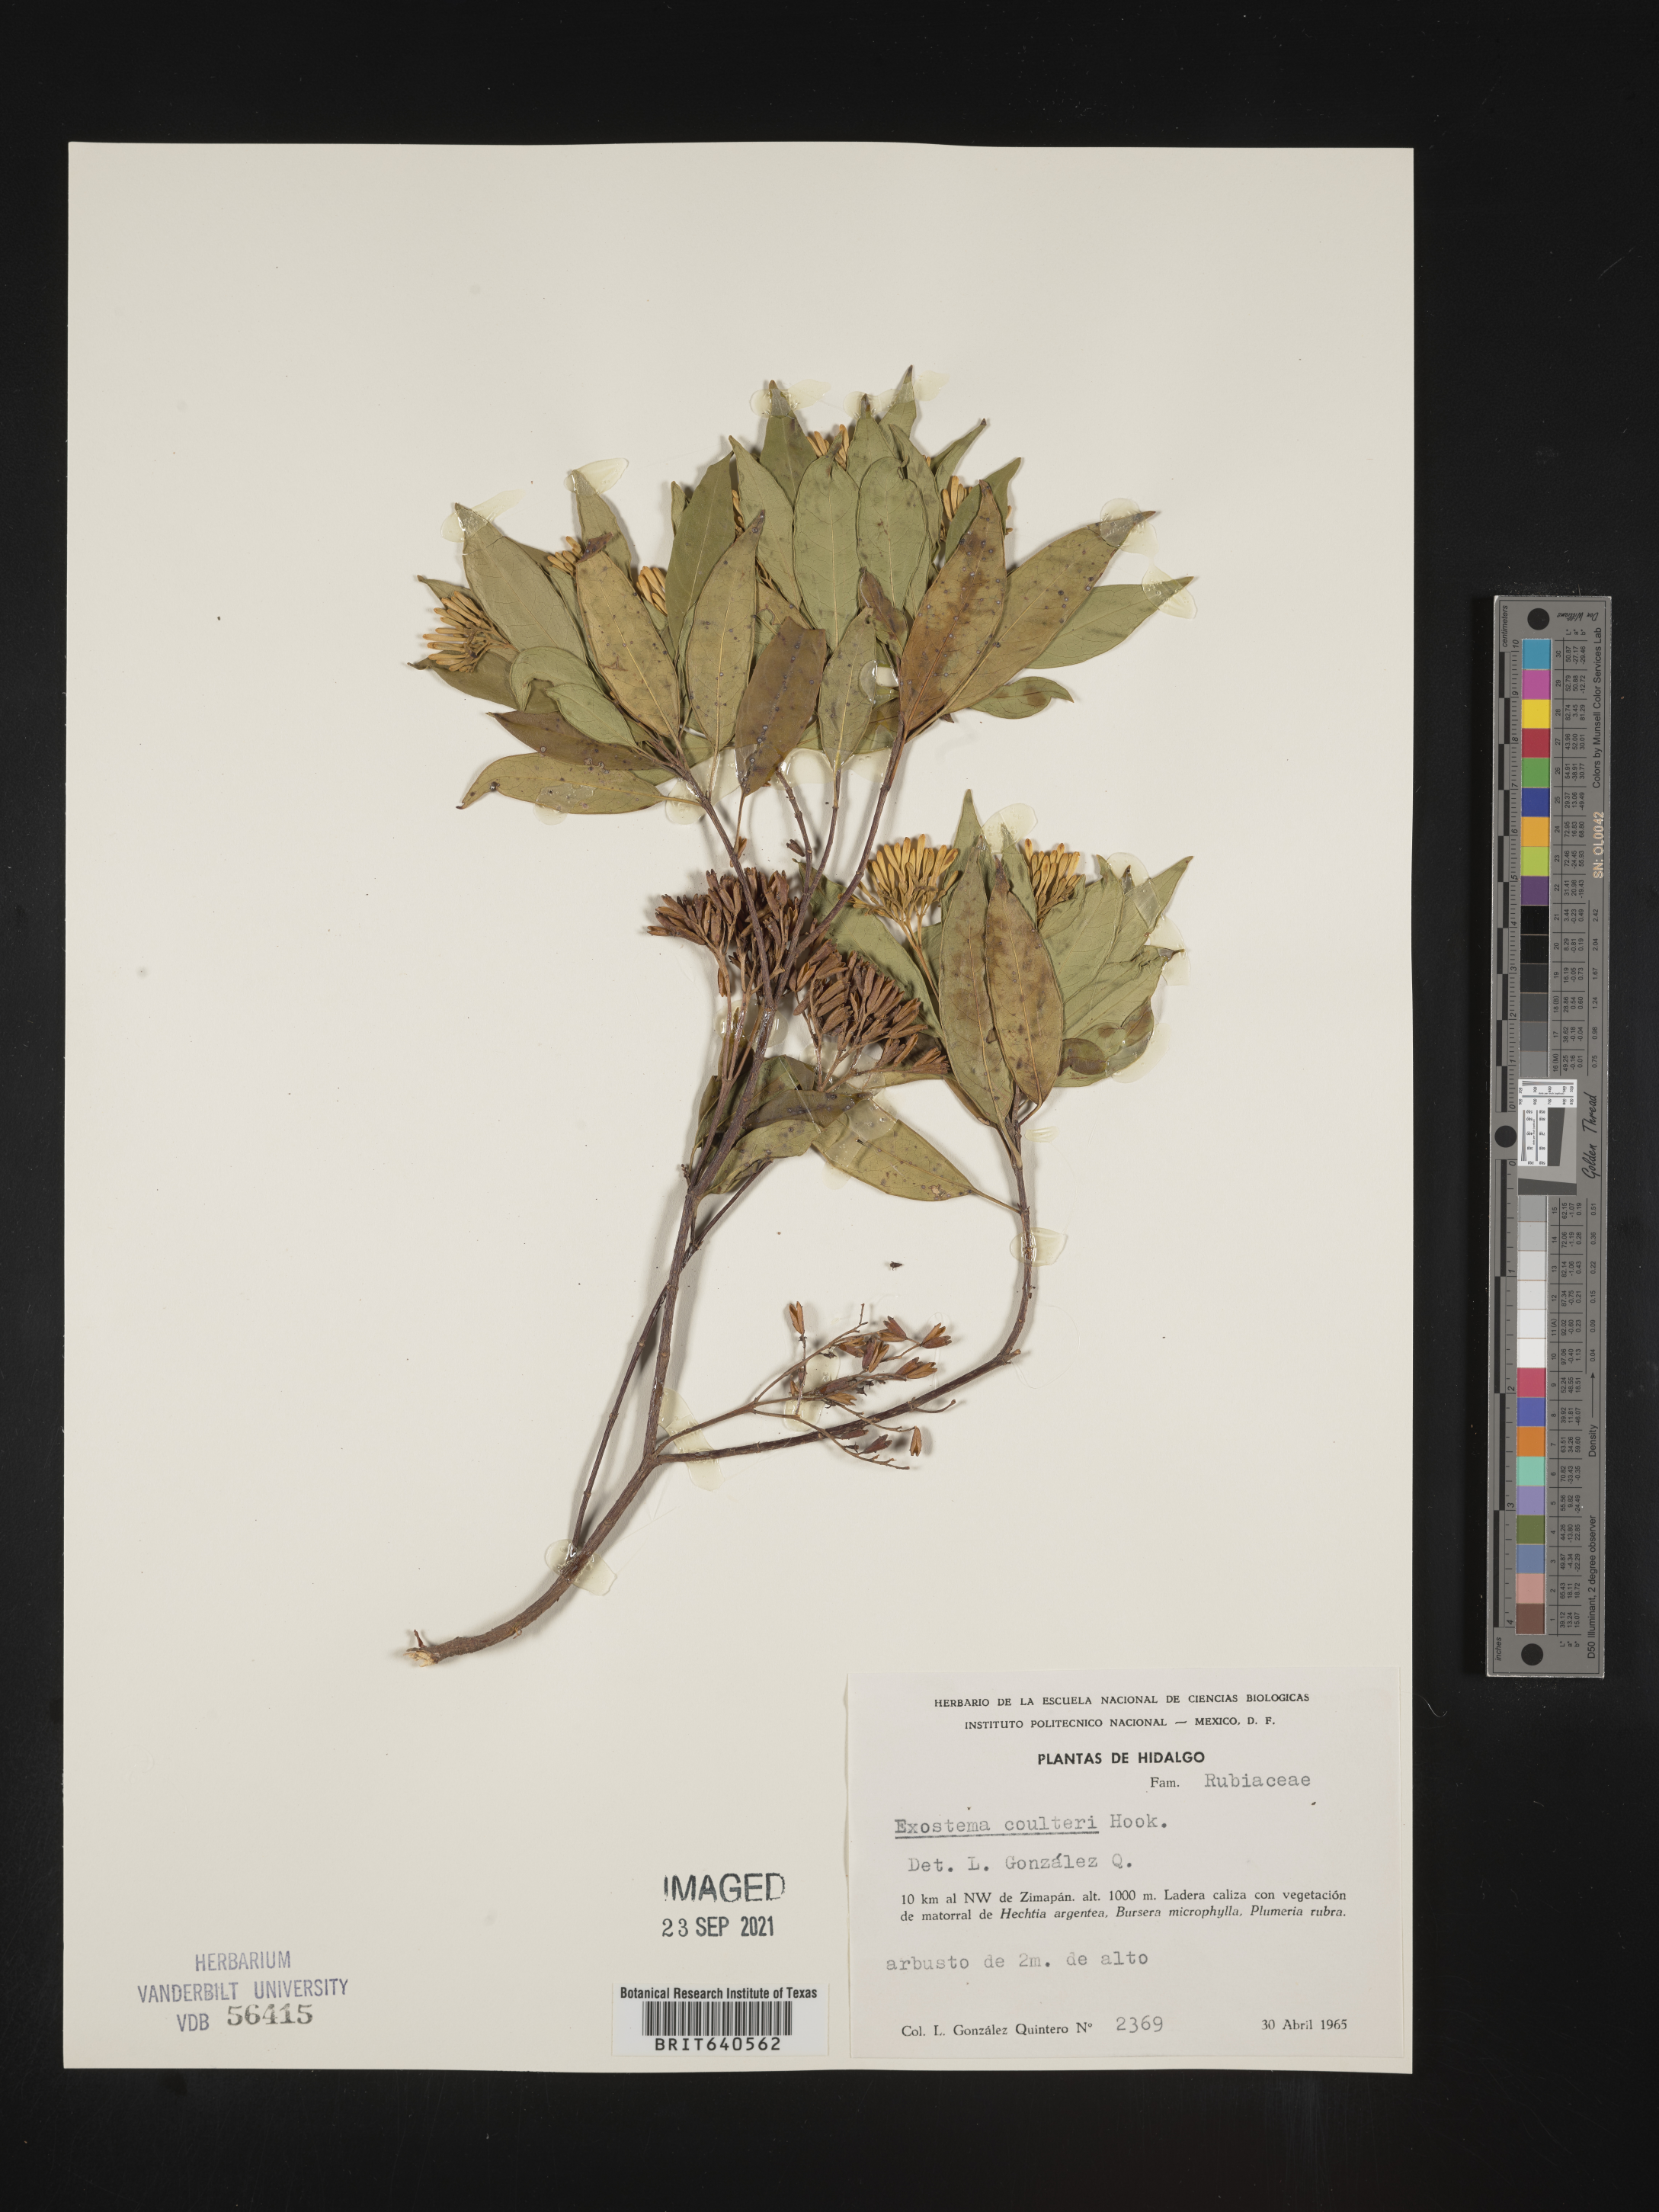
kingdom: Plantae
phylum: Tracheophyta
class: Magnoliopsida
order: Gentianales
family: Rubiaceae
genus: Exostema
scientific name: Exostema
